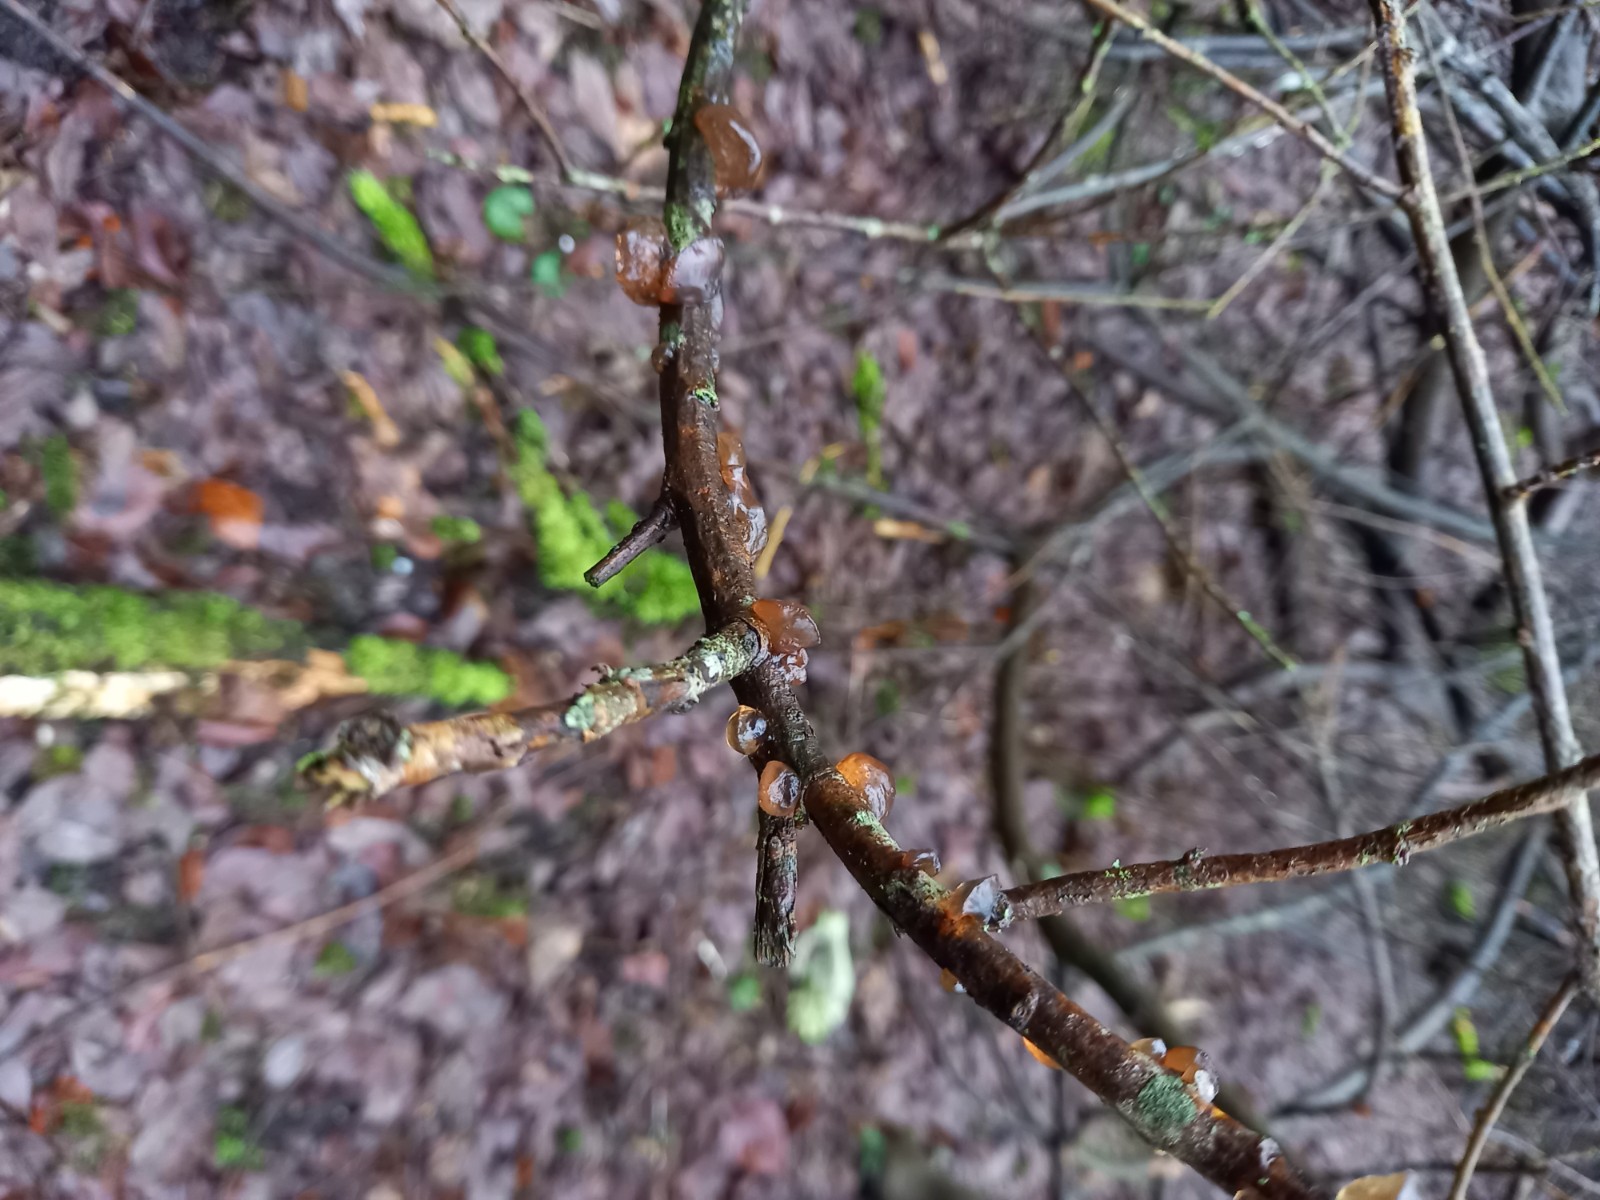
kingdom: Fungi
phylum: Basidiomycota
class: Agaricomycetes
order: Auriculariales
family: Auriculariaceae
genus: Exidia
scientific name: Exidia recisa
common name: pile-bævretop
